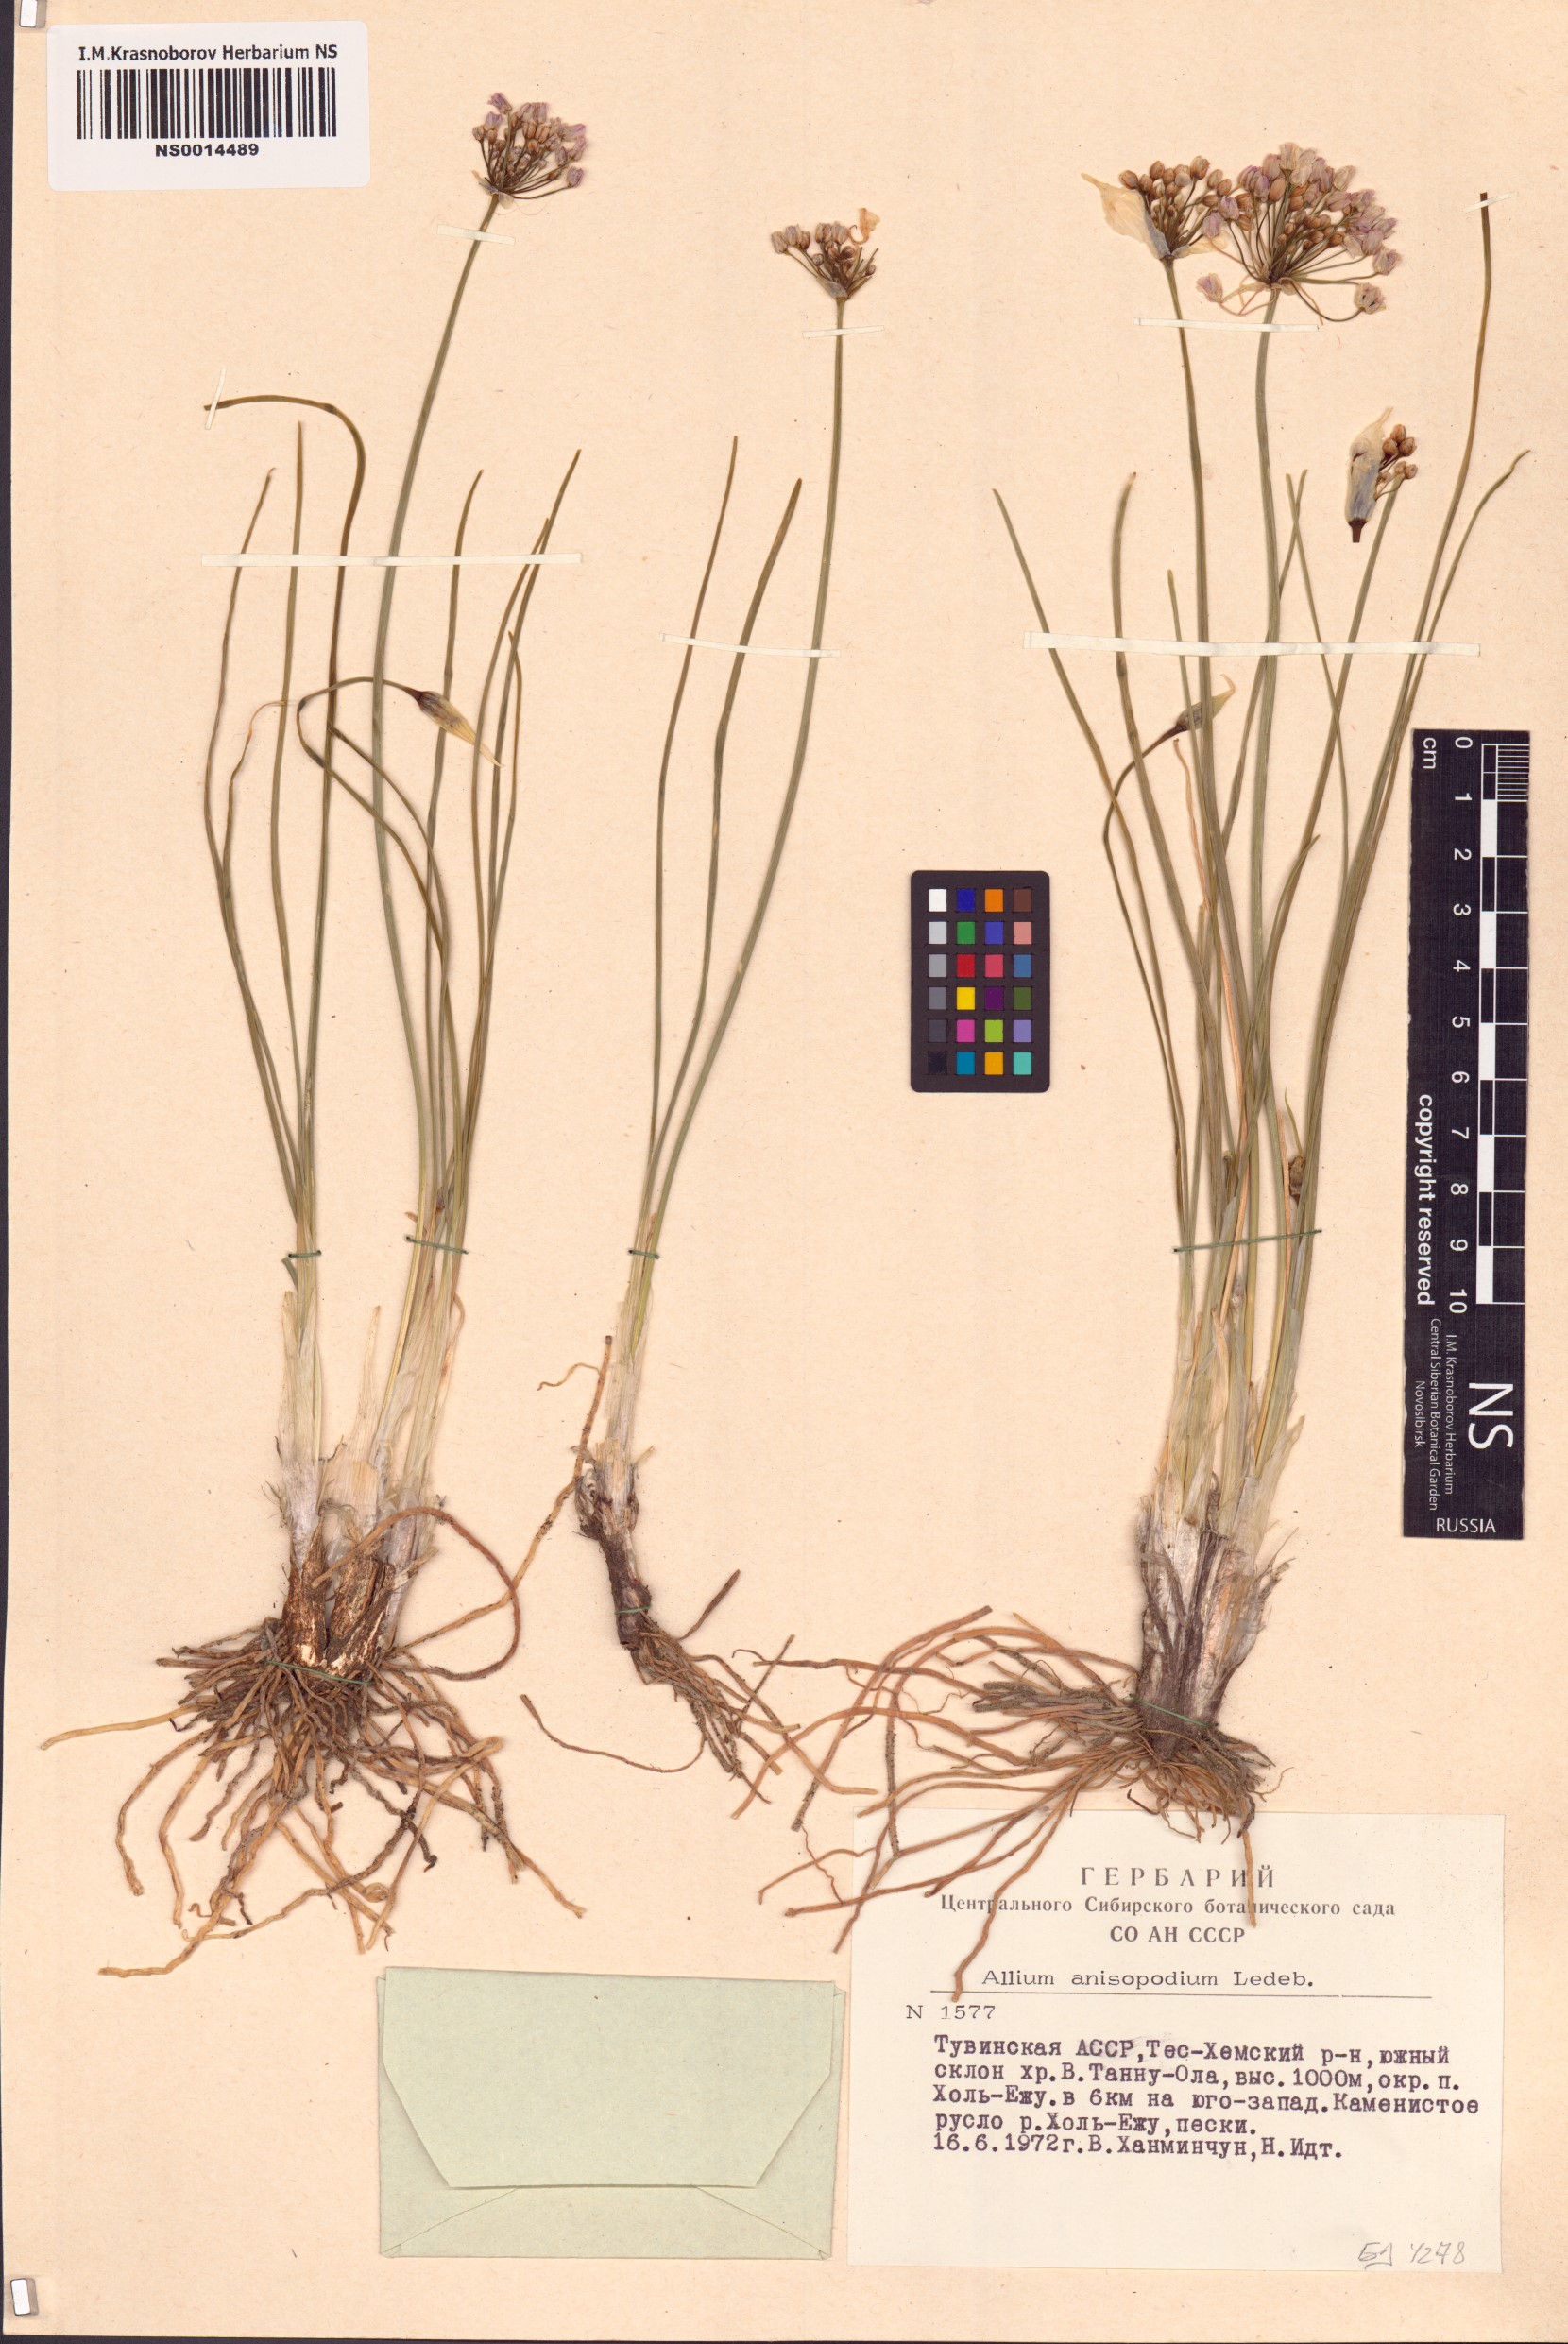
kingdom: Plantae
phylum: Tracheophyta
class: Liliopsida
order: Asparagales
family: Amaryllidaceae
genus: Allium
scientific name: Allium anisopodium
